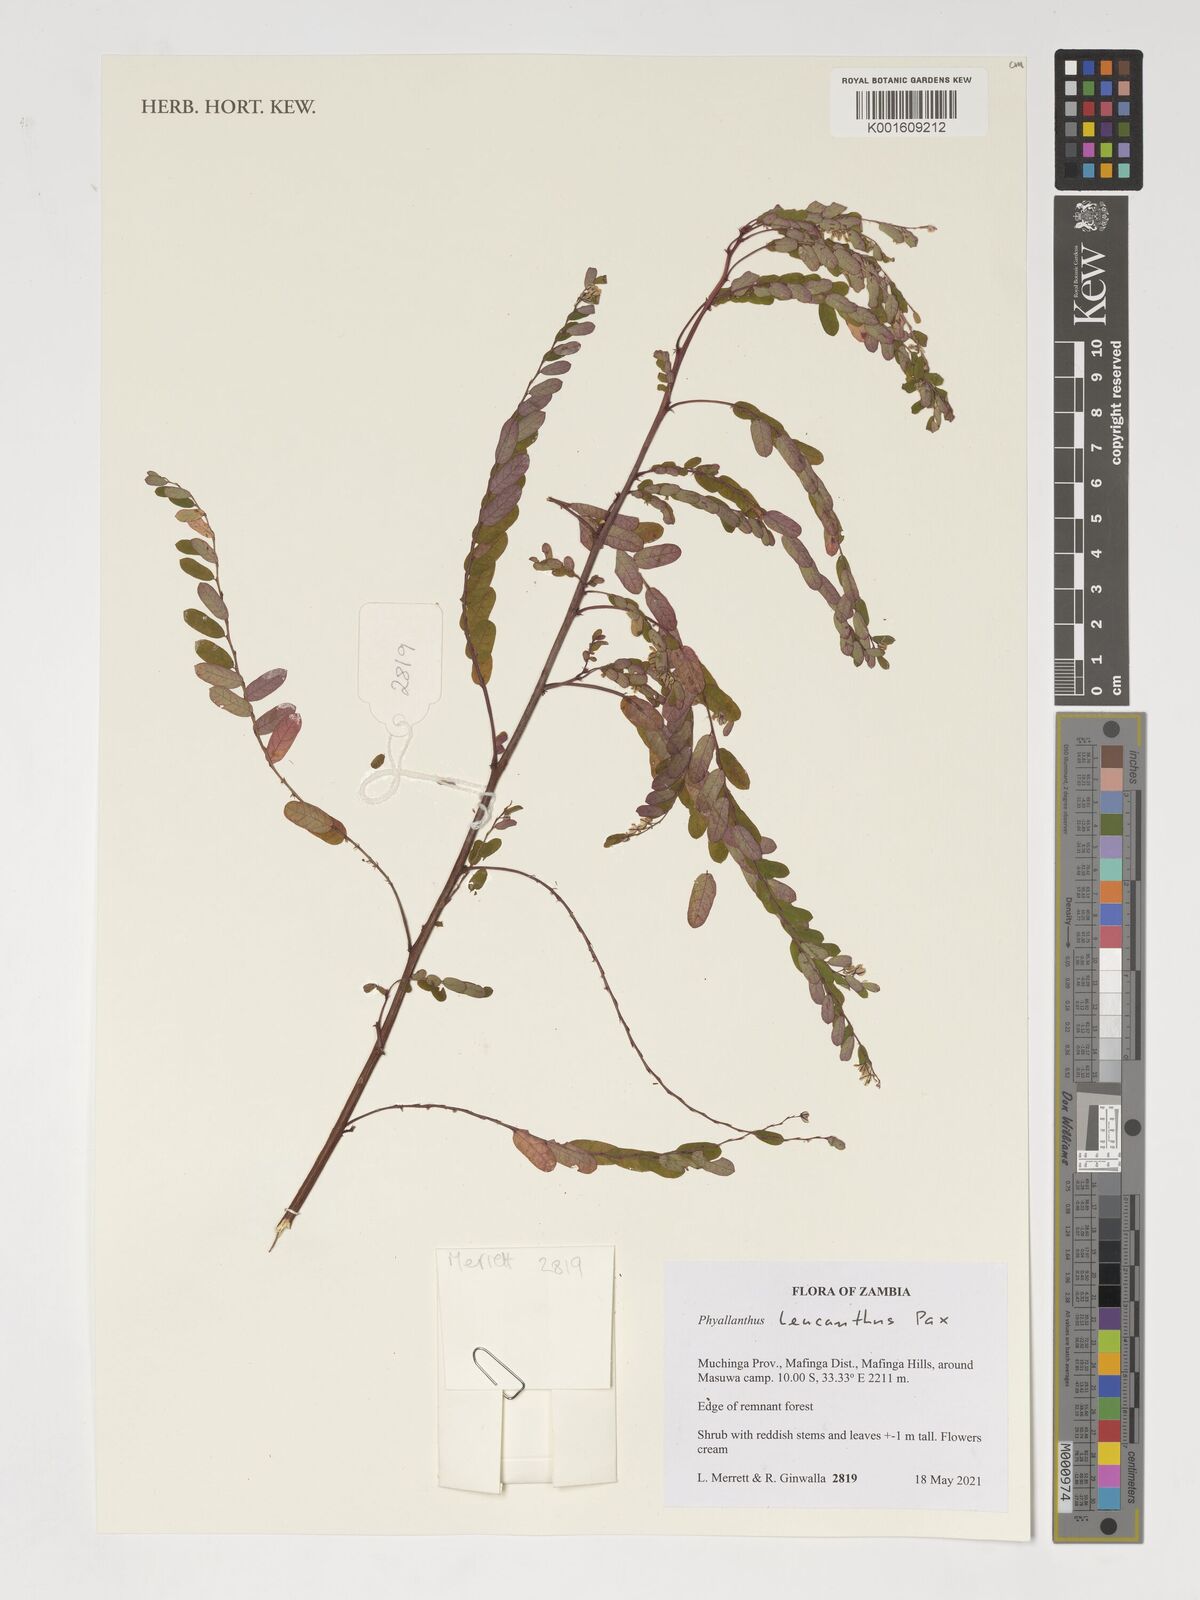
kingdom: Plantae
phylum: Tracheophyta
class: Magnoliopsida
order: Malpighiales
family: Phyllanthaceae
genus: Phyllanthus
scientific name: Phyllanthus leucanthus
